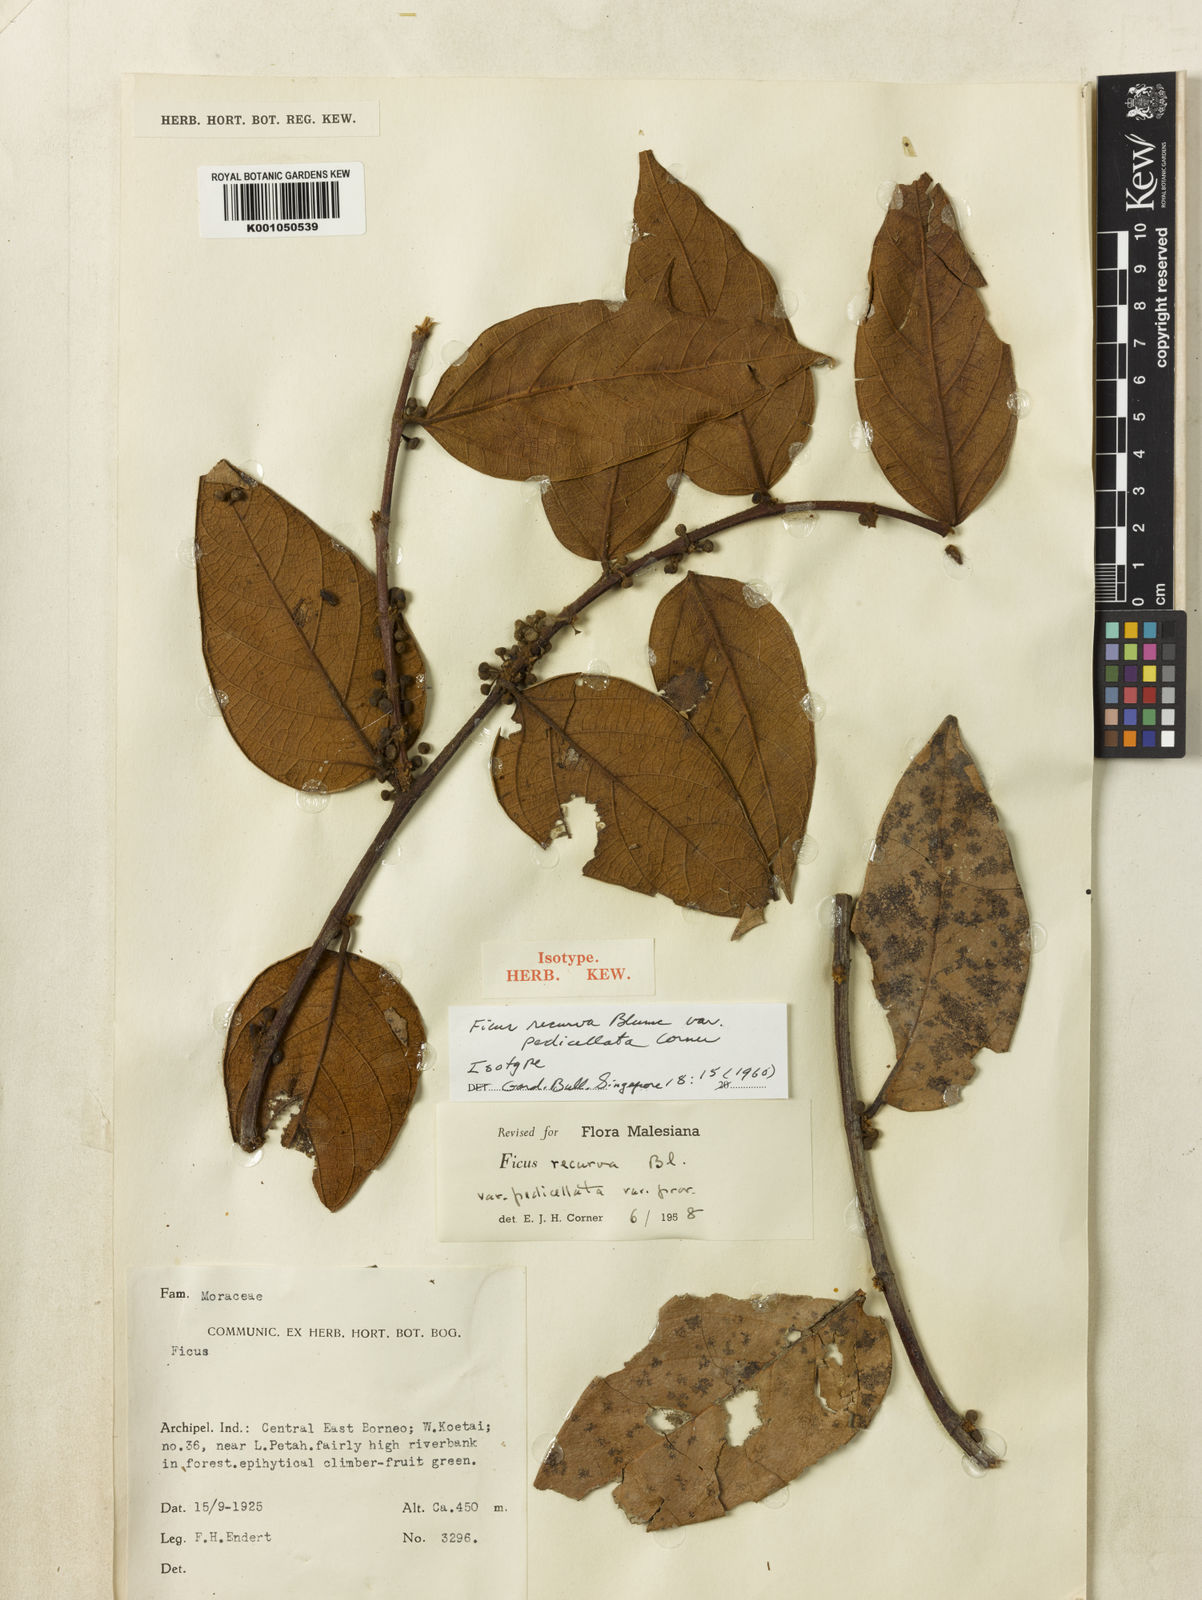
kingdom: Plantae
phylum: Tracheophyta
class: Magnoliopsida
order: Rosales
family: Moraceae
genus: Ficus
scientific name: Ficus recurva
